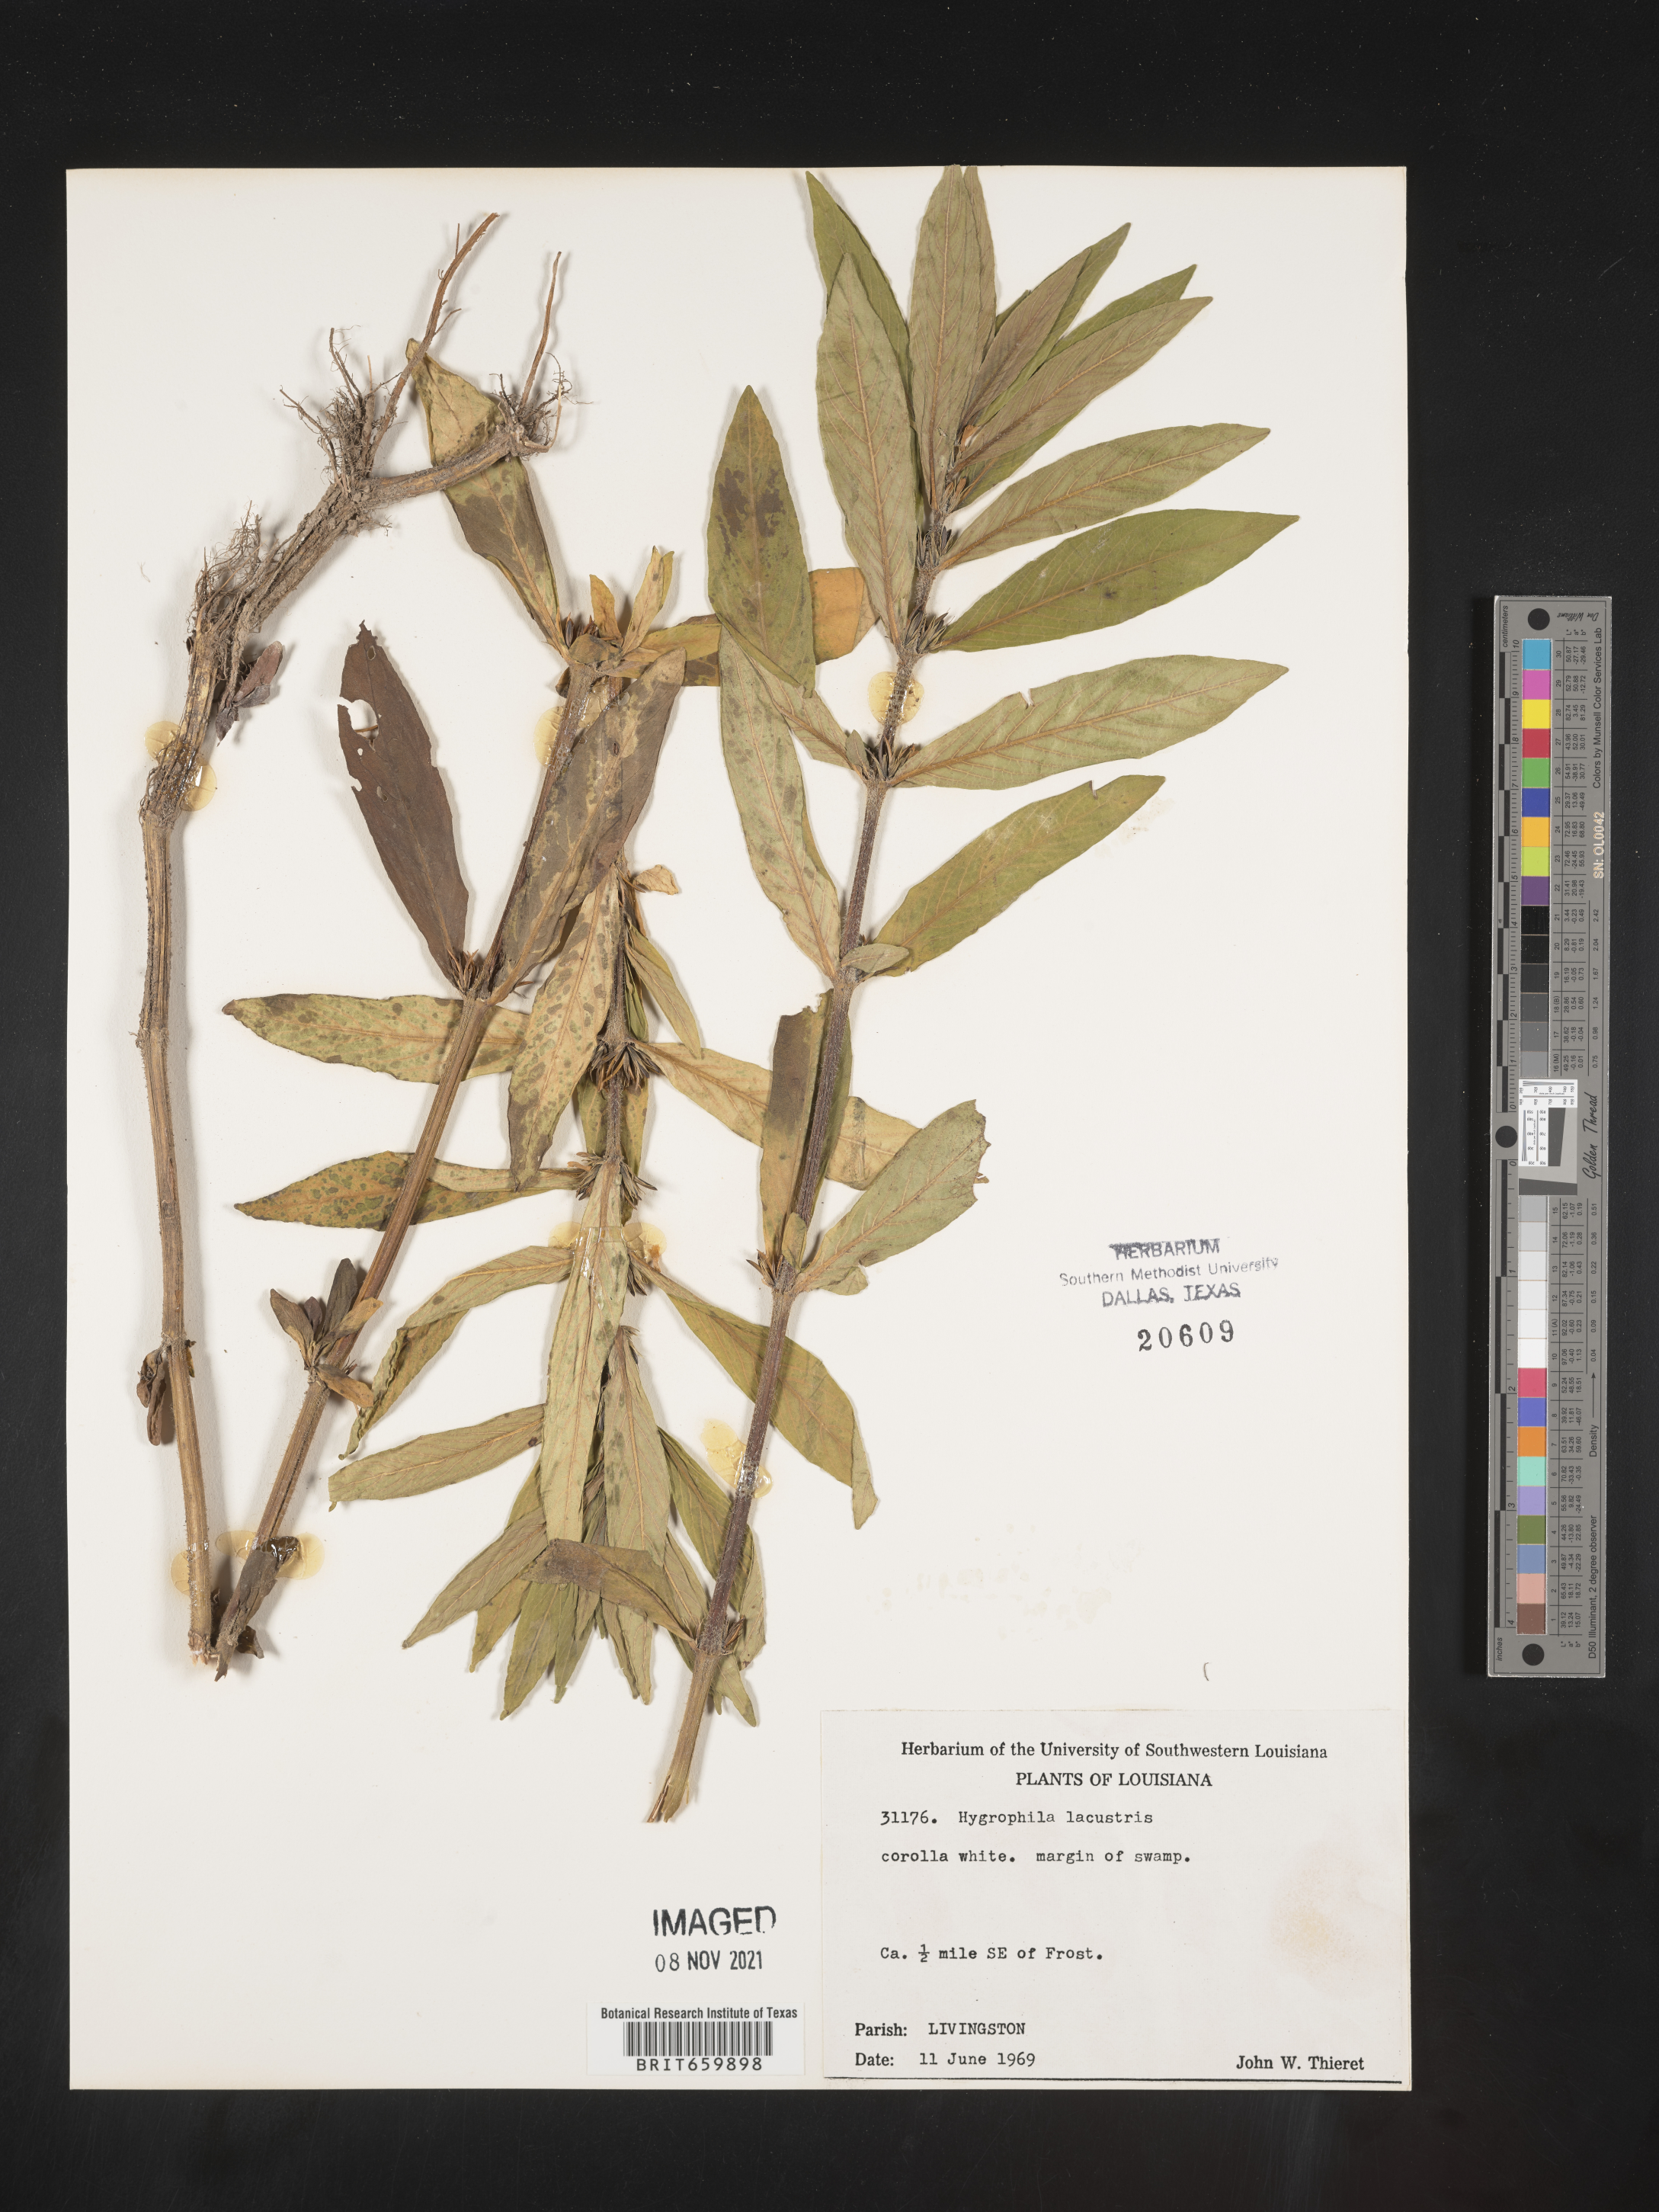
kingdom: Plantae
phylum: Tracheophyta
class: Magnoliopsida
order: Lamiales
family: Acanthaceae
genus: Hygrophila
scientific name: Hygrophila costata
